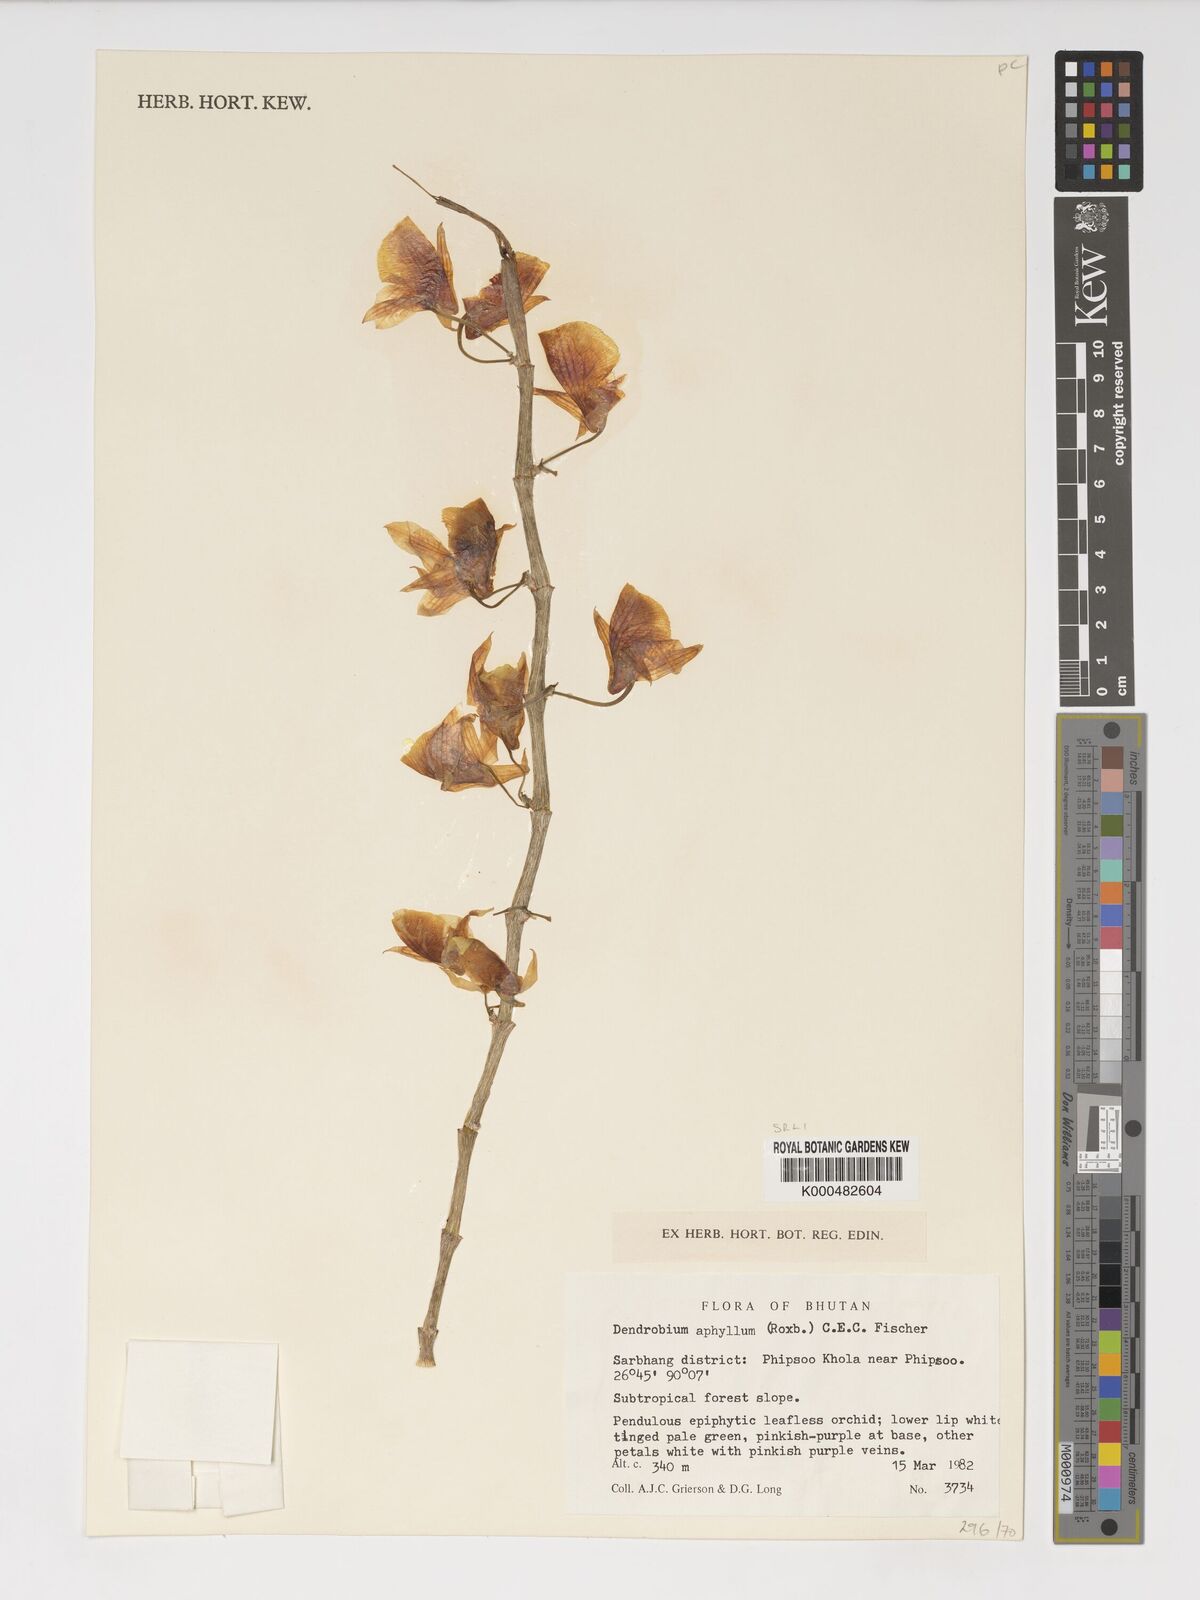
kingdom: Plantae
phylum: Tracheophyta
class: Liliopsida
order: Asparagales
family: Orchidaceae
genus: Dendrobium
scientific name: Dendrobium macrostachyum
